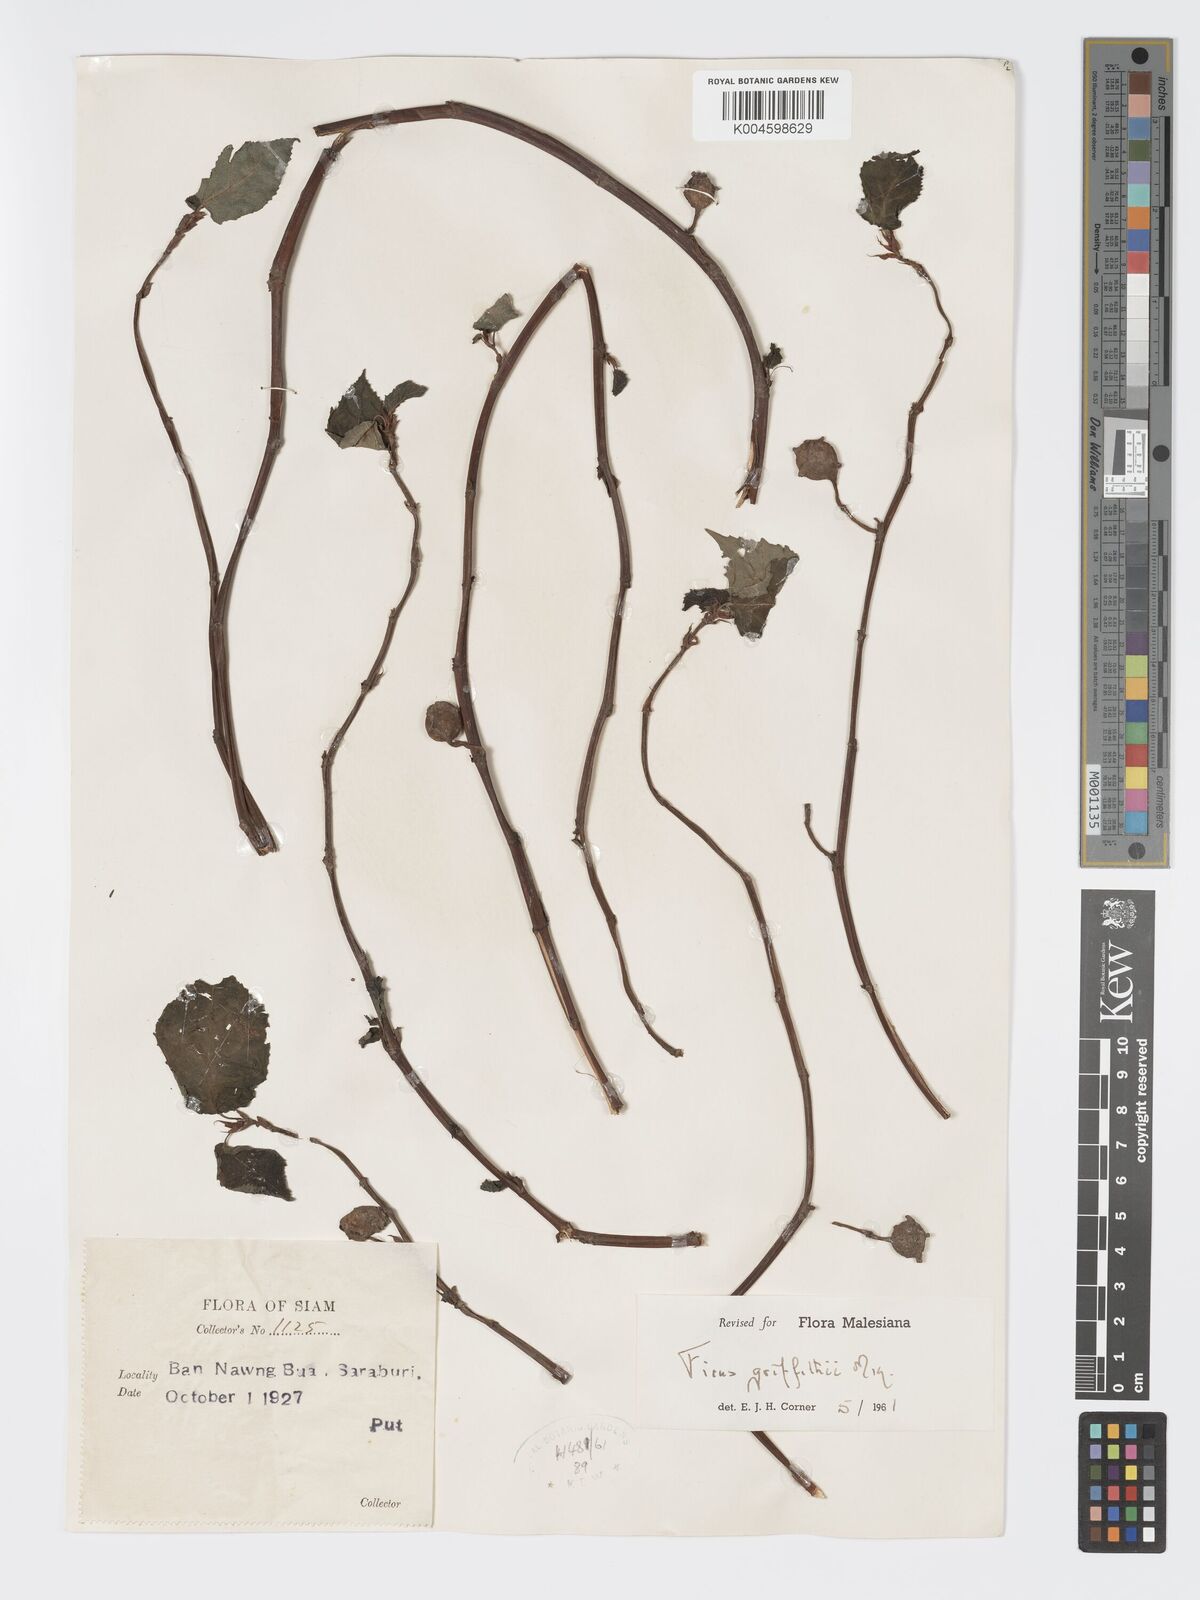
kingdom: Plantae
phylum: Tracheophyta
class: Magnoliopsida
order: Rosales
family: Moraceae
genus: Ficus
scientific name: Ficus griffithii
